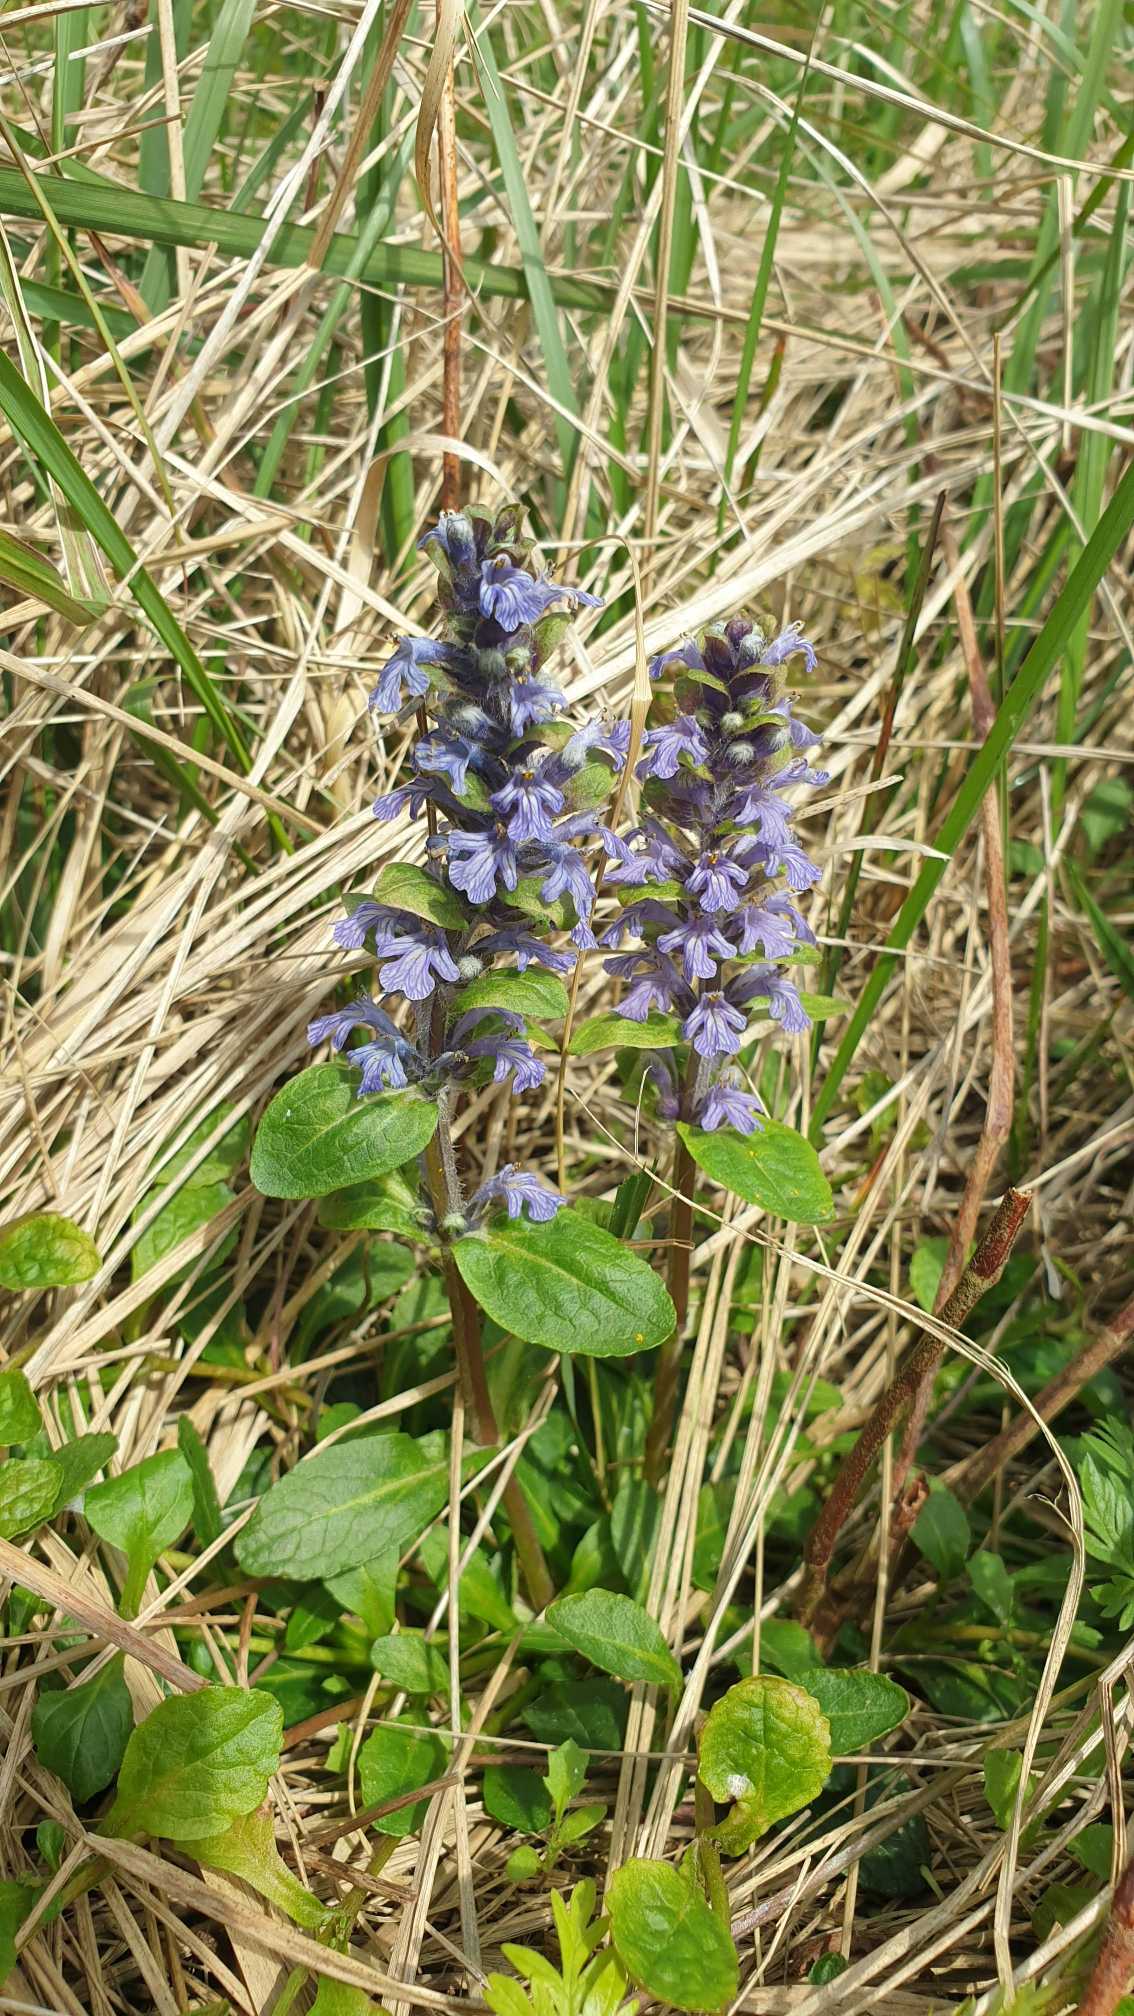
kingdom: Plantae
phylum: Tracheophyta
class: Magnoliopsida
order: Lamiales
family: Lamiaceae
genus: Ajuga
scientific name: Ajuga reptans
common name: Krybende læbeløs
